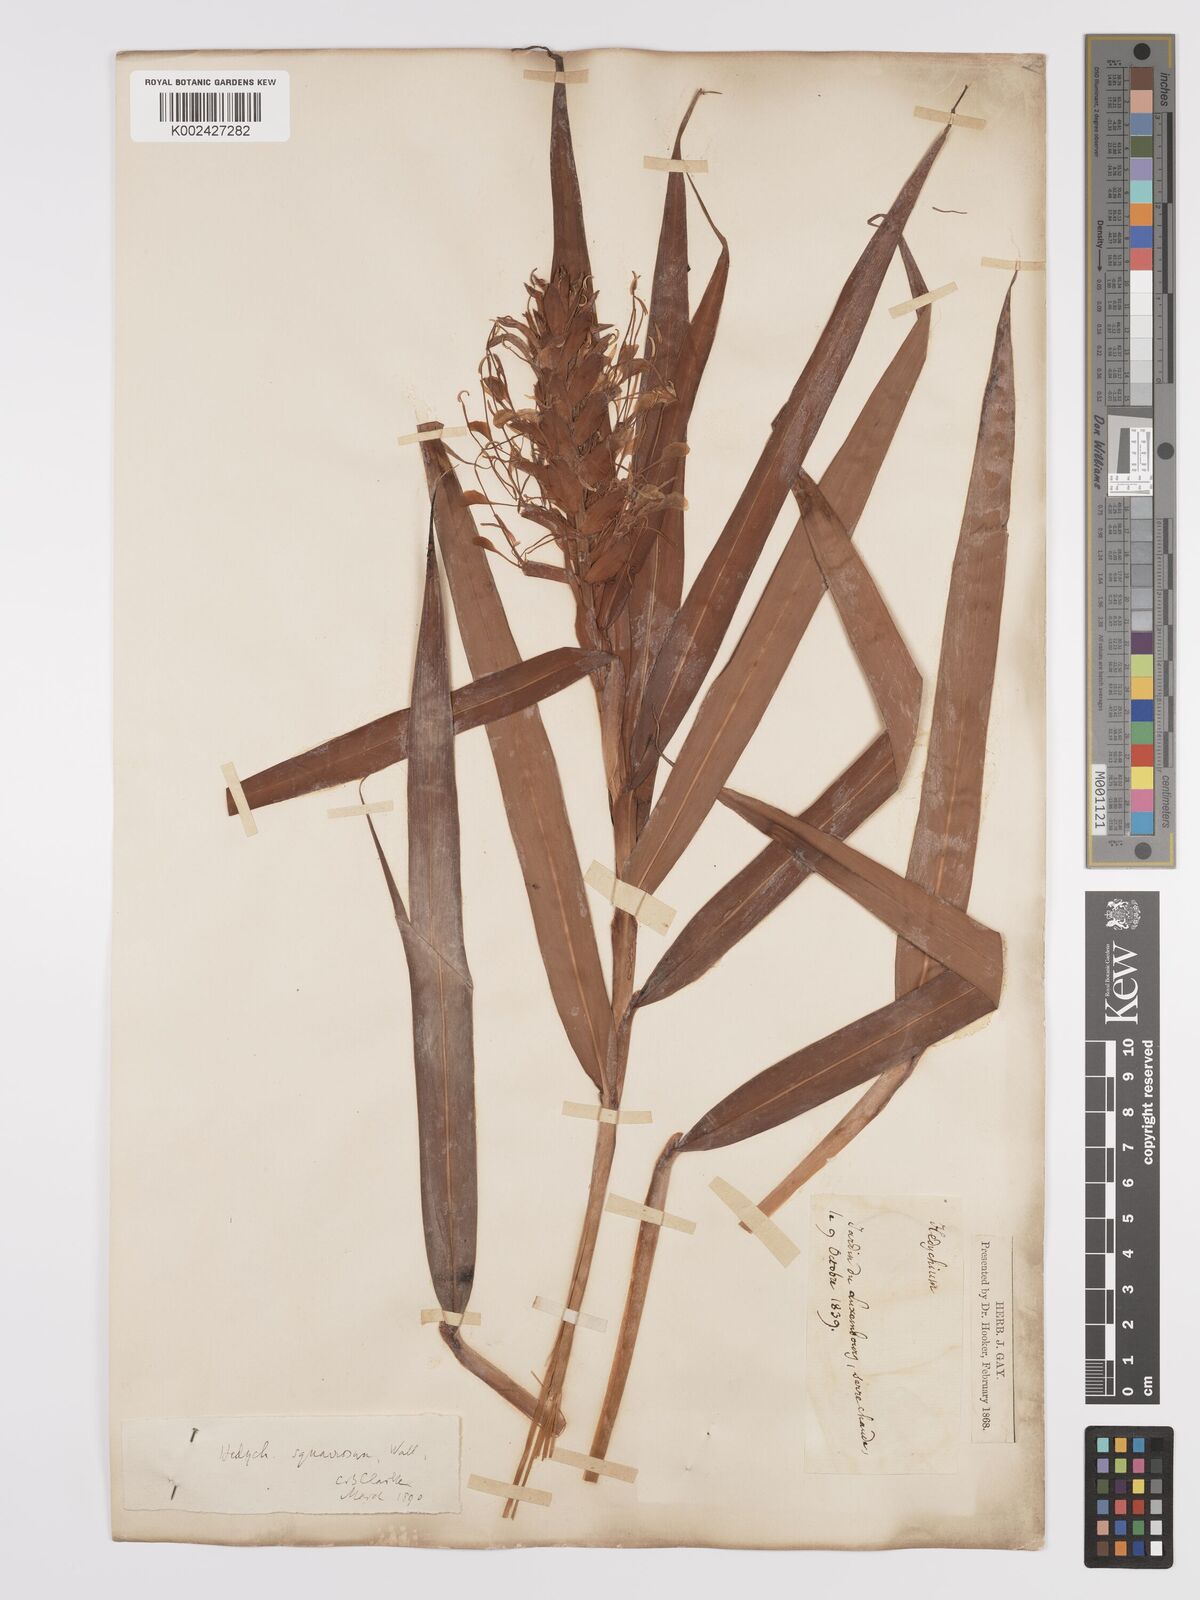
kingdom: Plantae
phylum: Tracheophyta
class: Liliopsida
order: Zingiberales
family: Zingiberaceae
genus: Hedychium
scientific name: Hedychium coccineum
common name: Red ginger-lily
